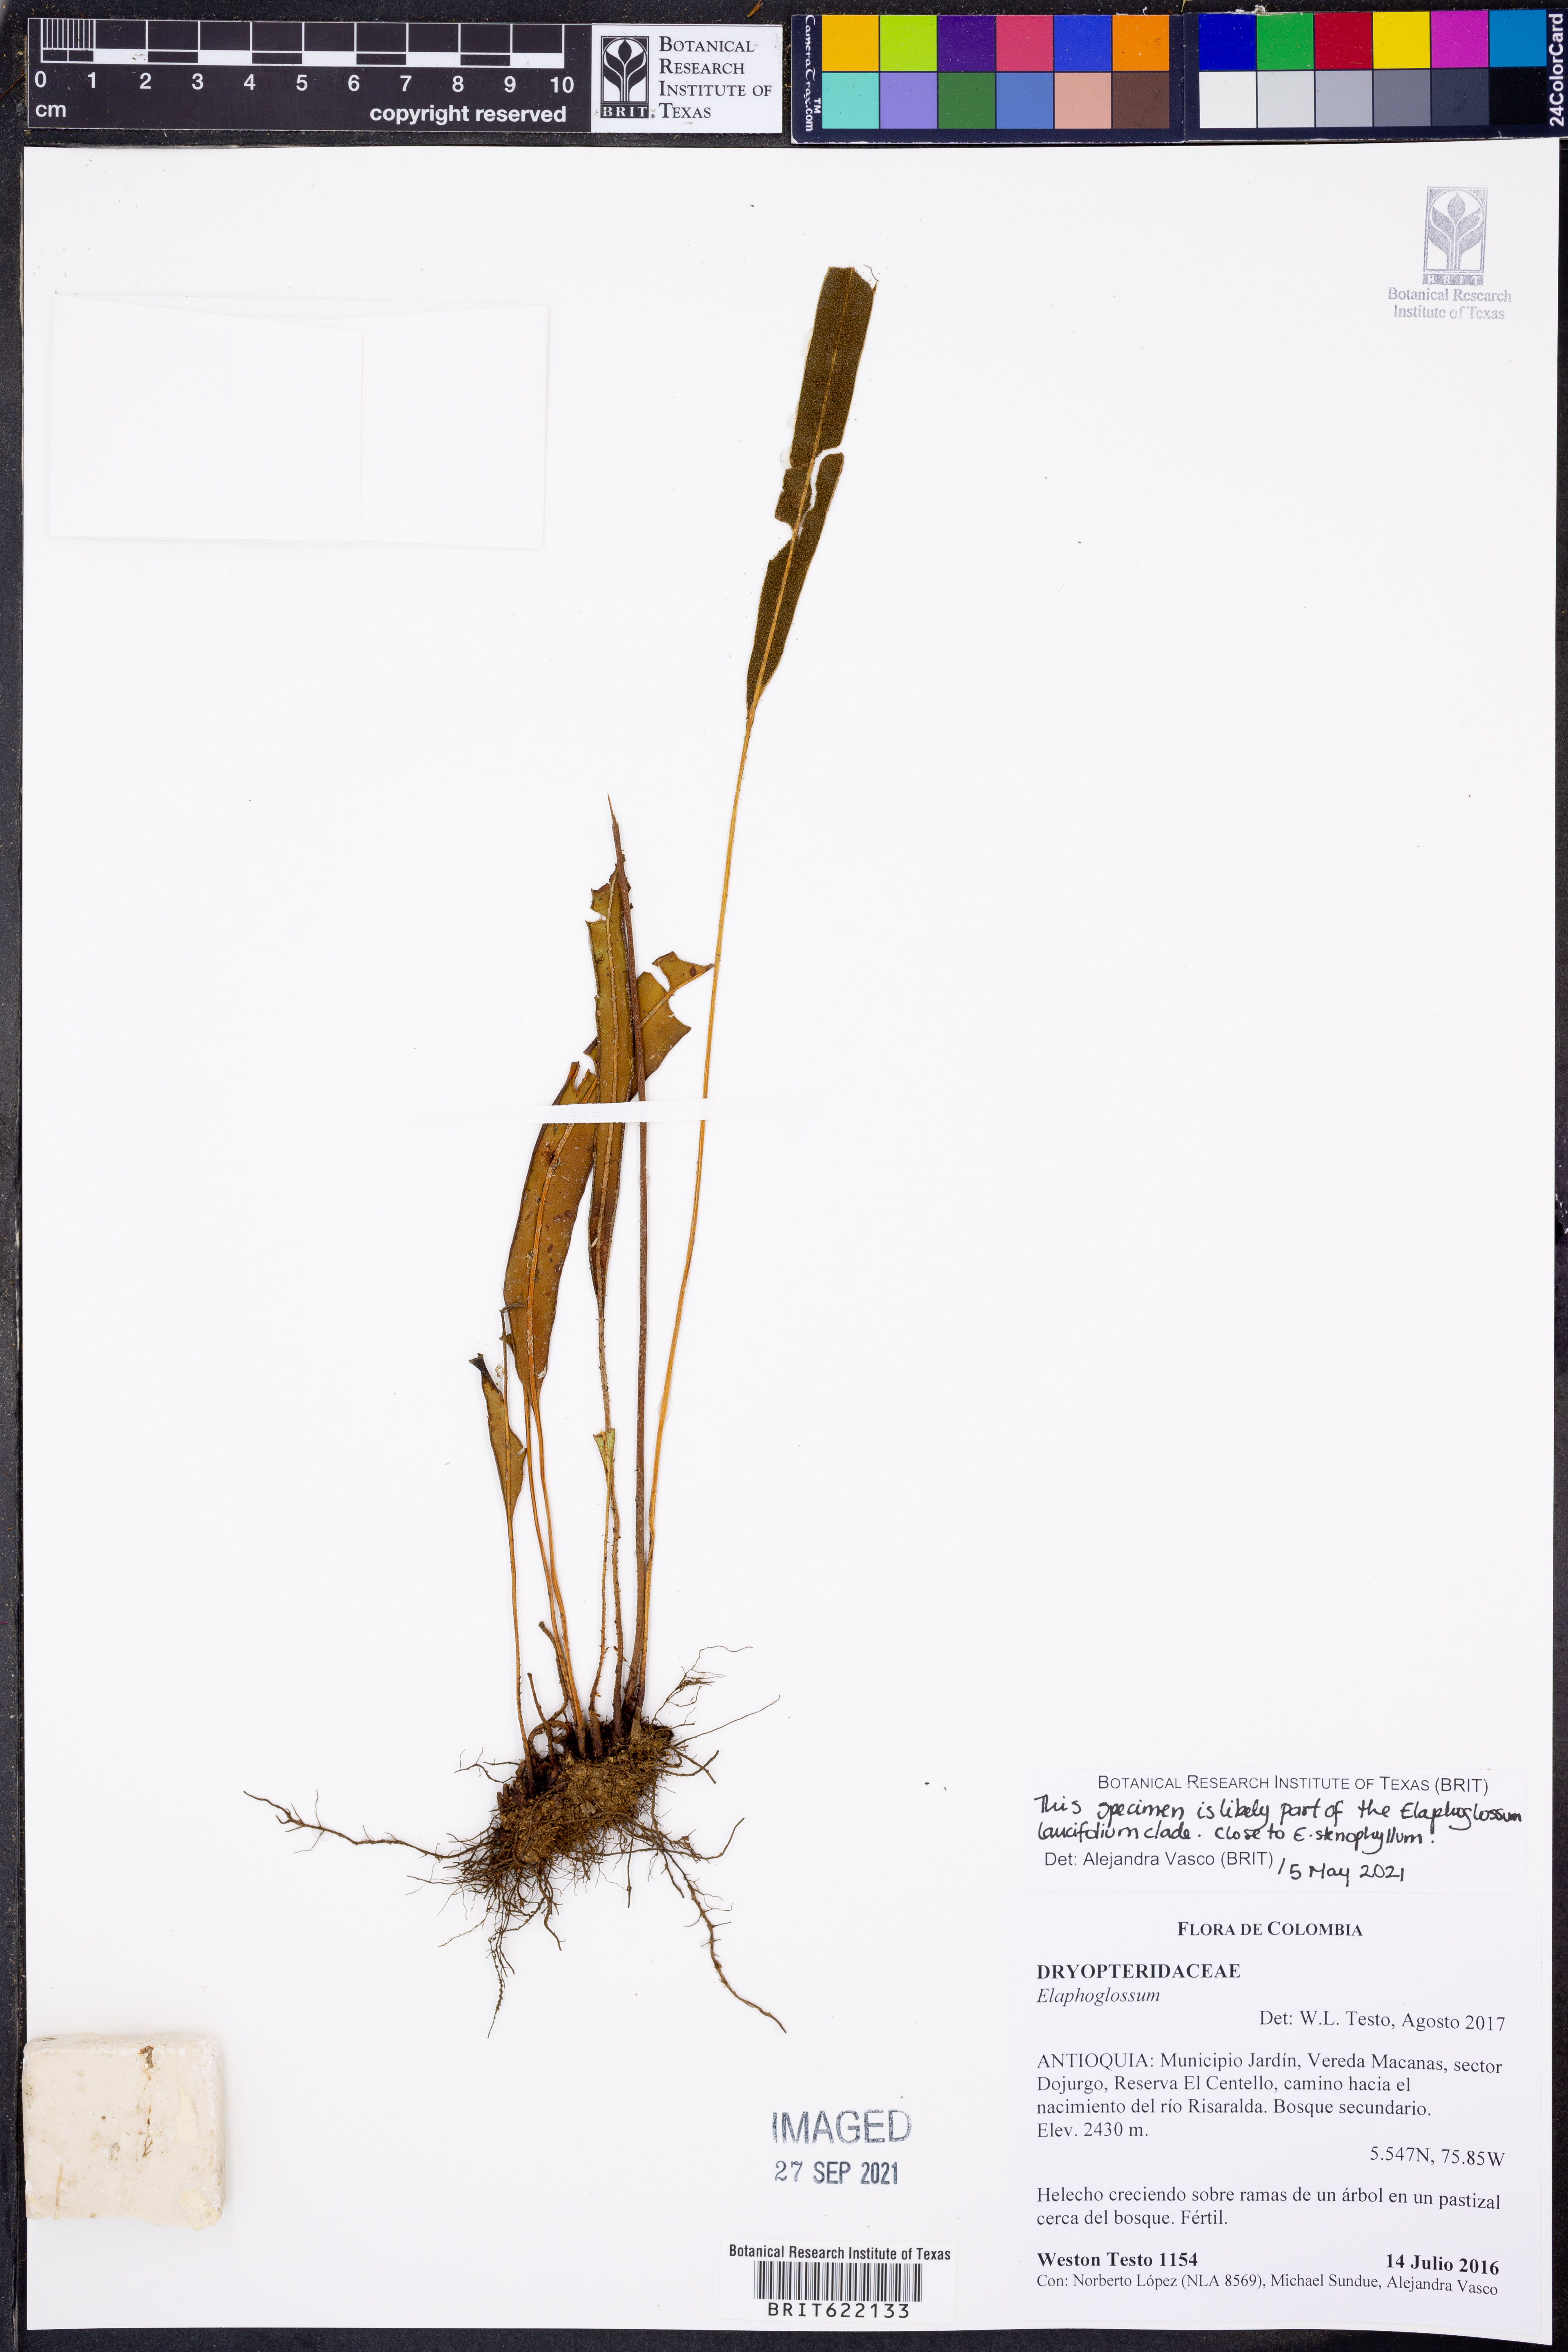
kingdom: Plantae
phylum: Tracheophyta
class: Polypodiopsida
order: Polypodiales
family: Dryopteridaceae
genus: Elaphoglossum
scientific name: Elaphoglossum
